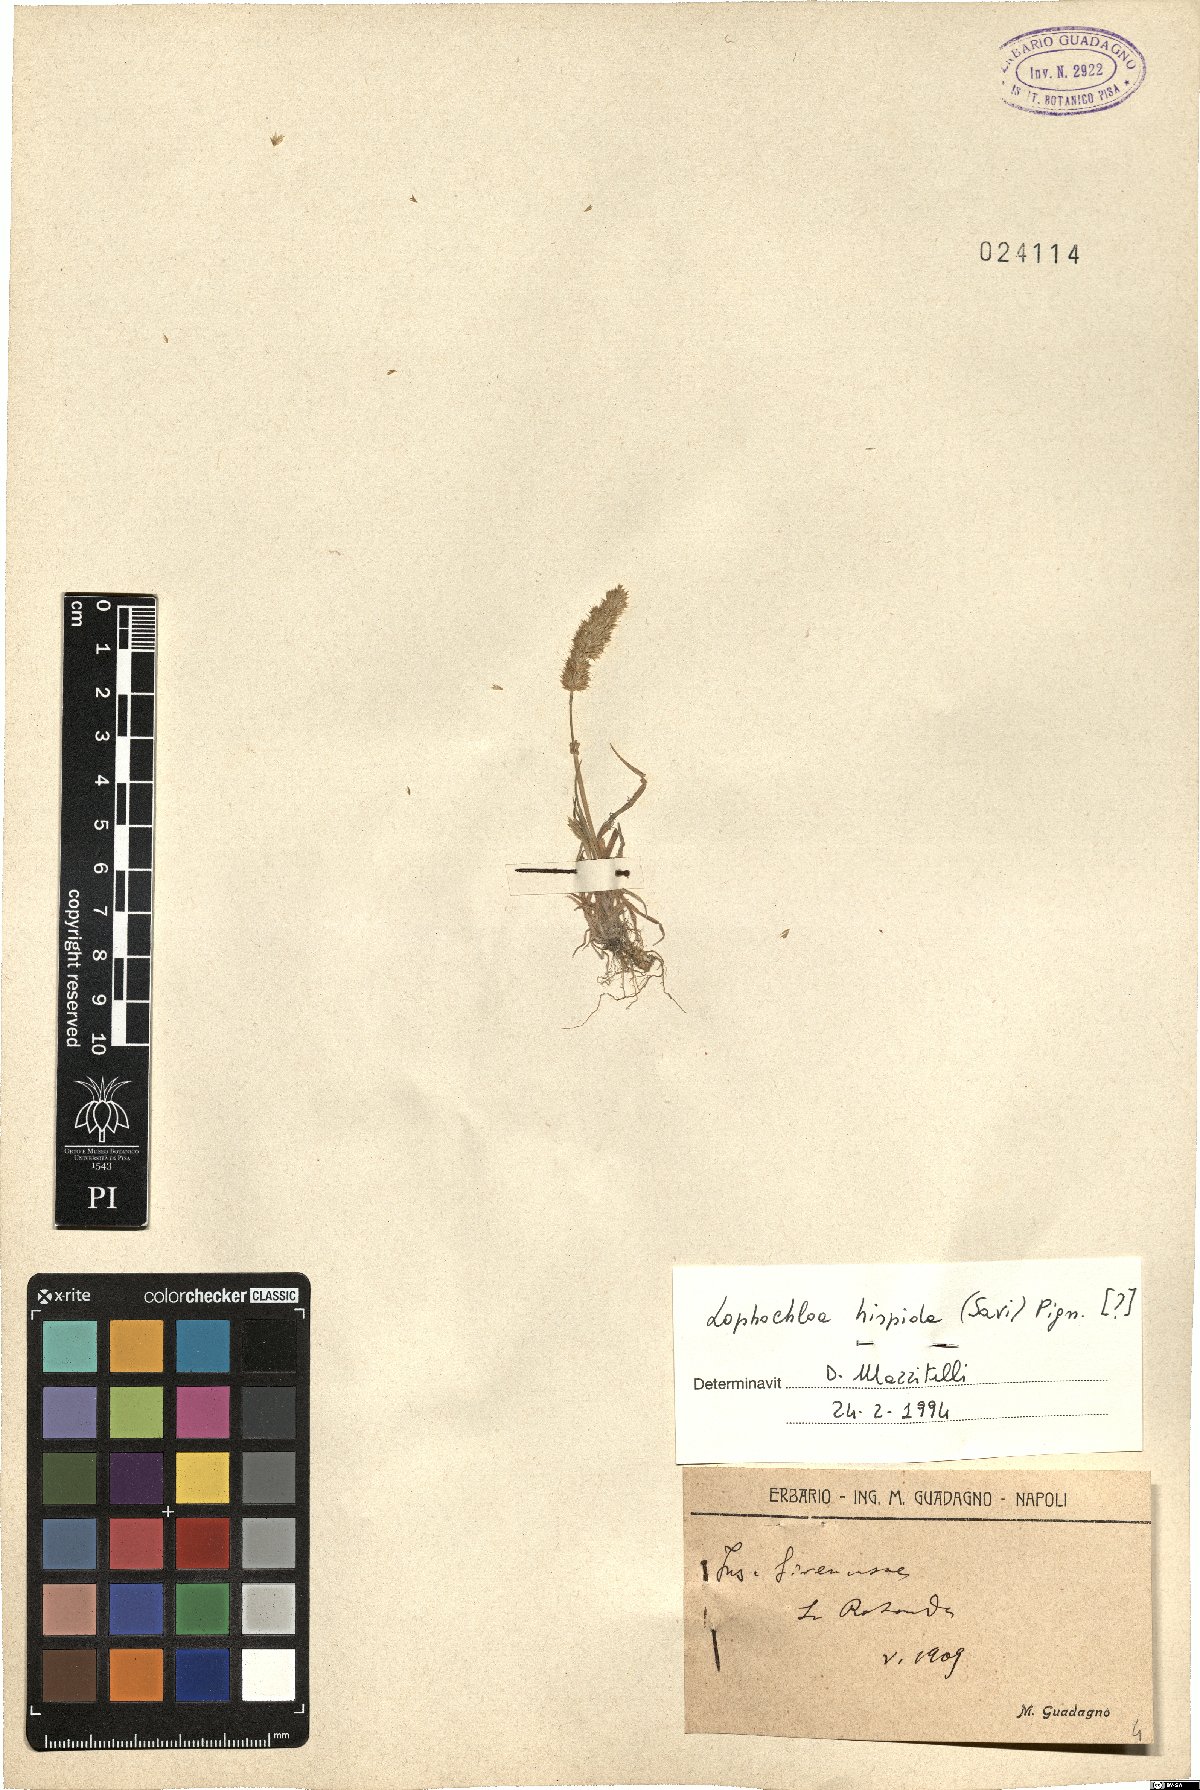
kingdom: Plantae
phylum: Tracheophyta
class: Liliopsida
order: Poales
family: Poaceae
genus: Rostraria
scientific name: Rostraria hispida
